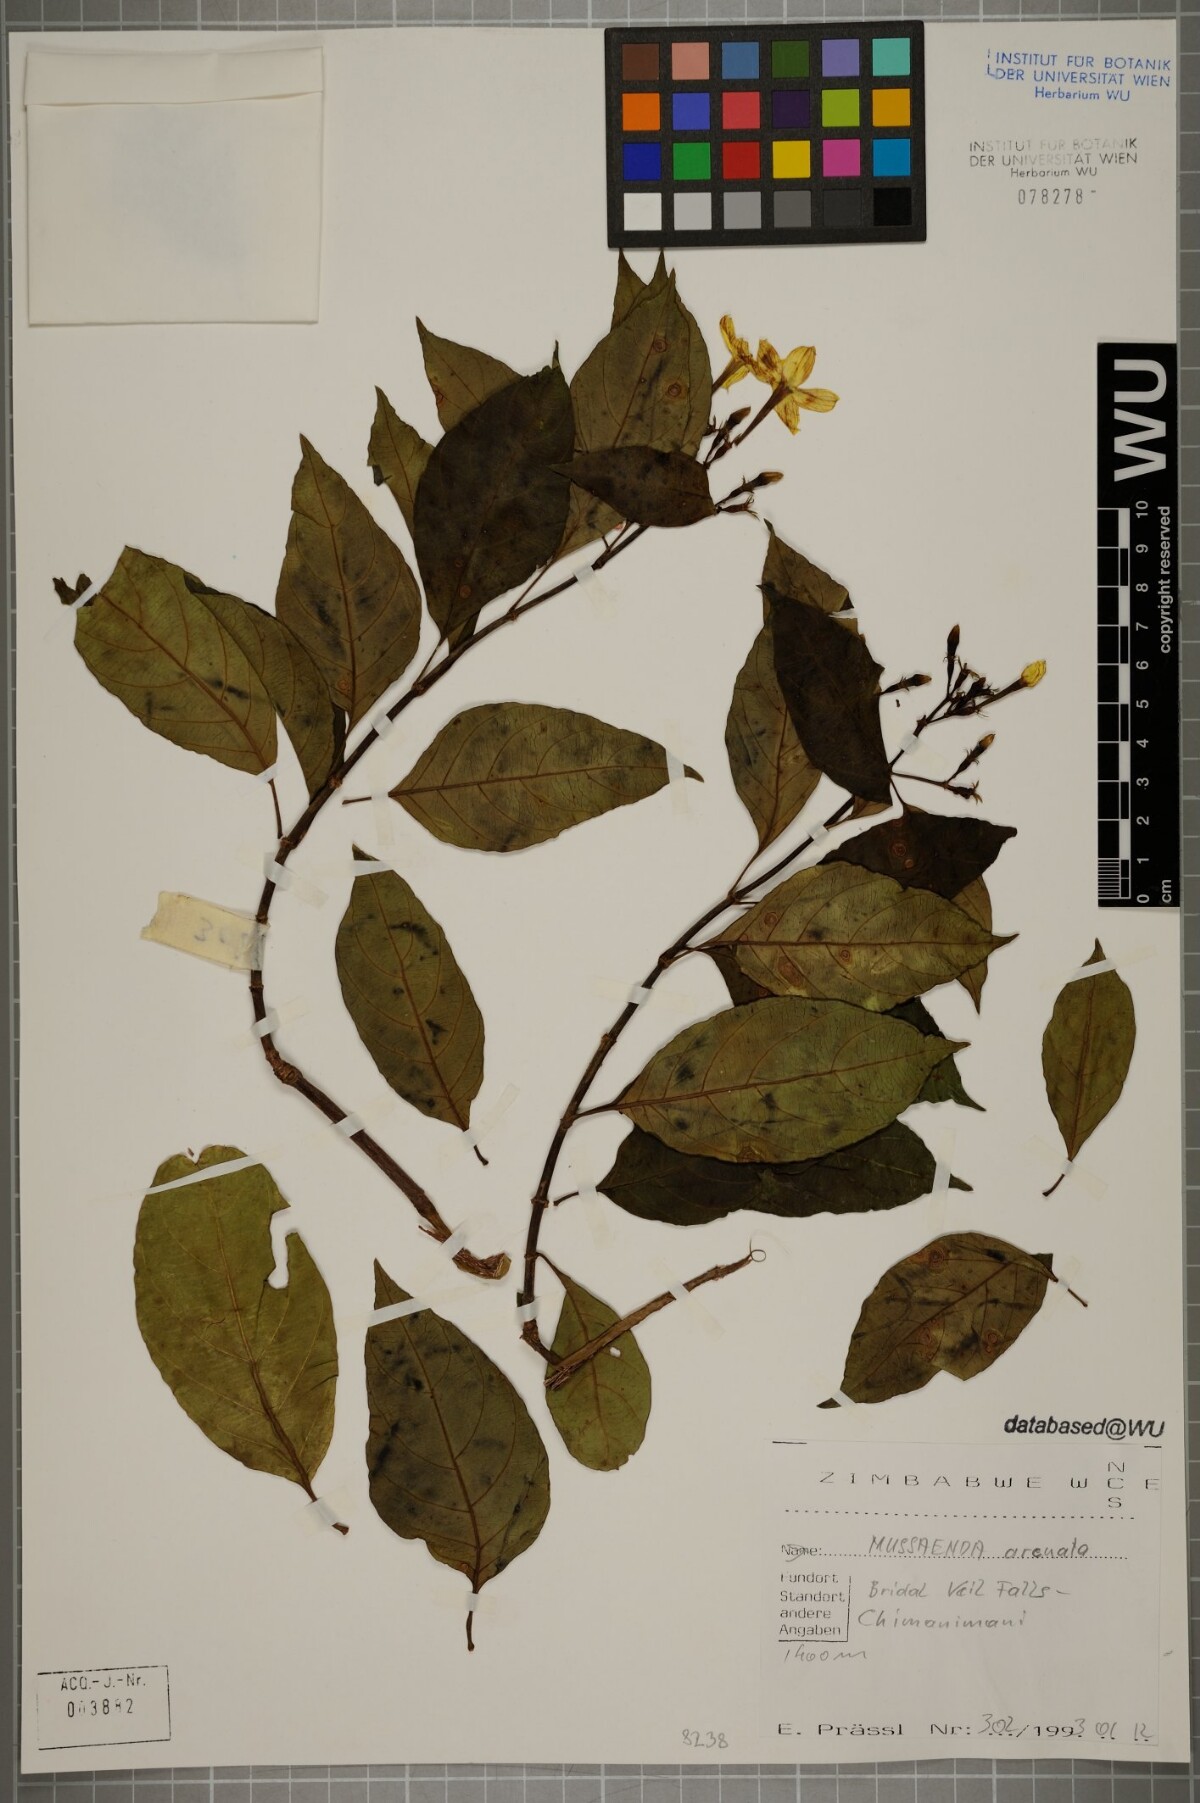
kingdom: Plantae
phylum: Tracheophyta
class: Magnoliopsida
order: Gentianales
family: Rubiaceae
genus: Mussaenda
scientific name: Mussaenda arcuata
